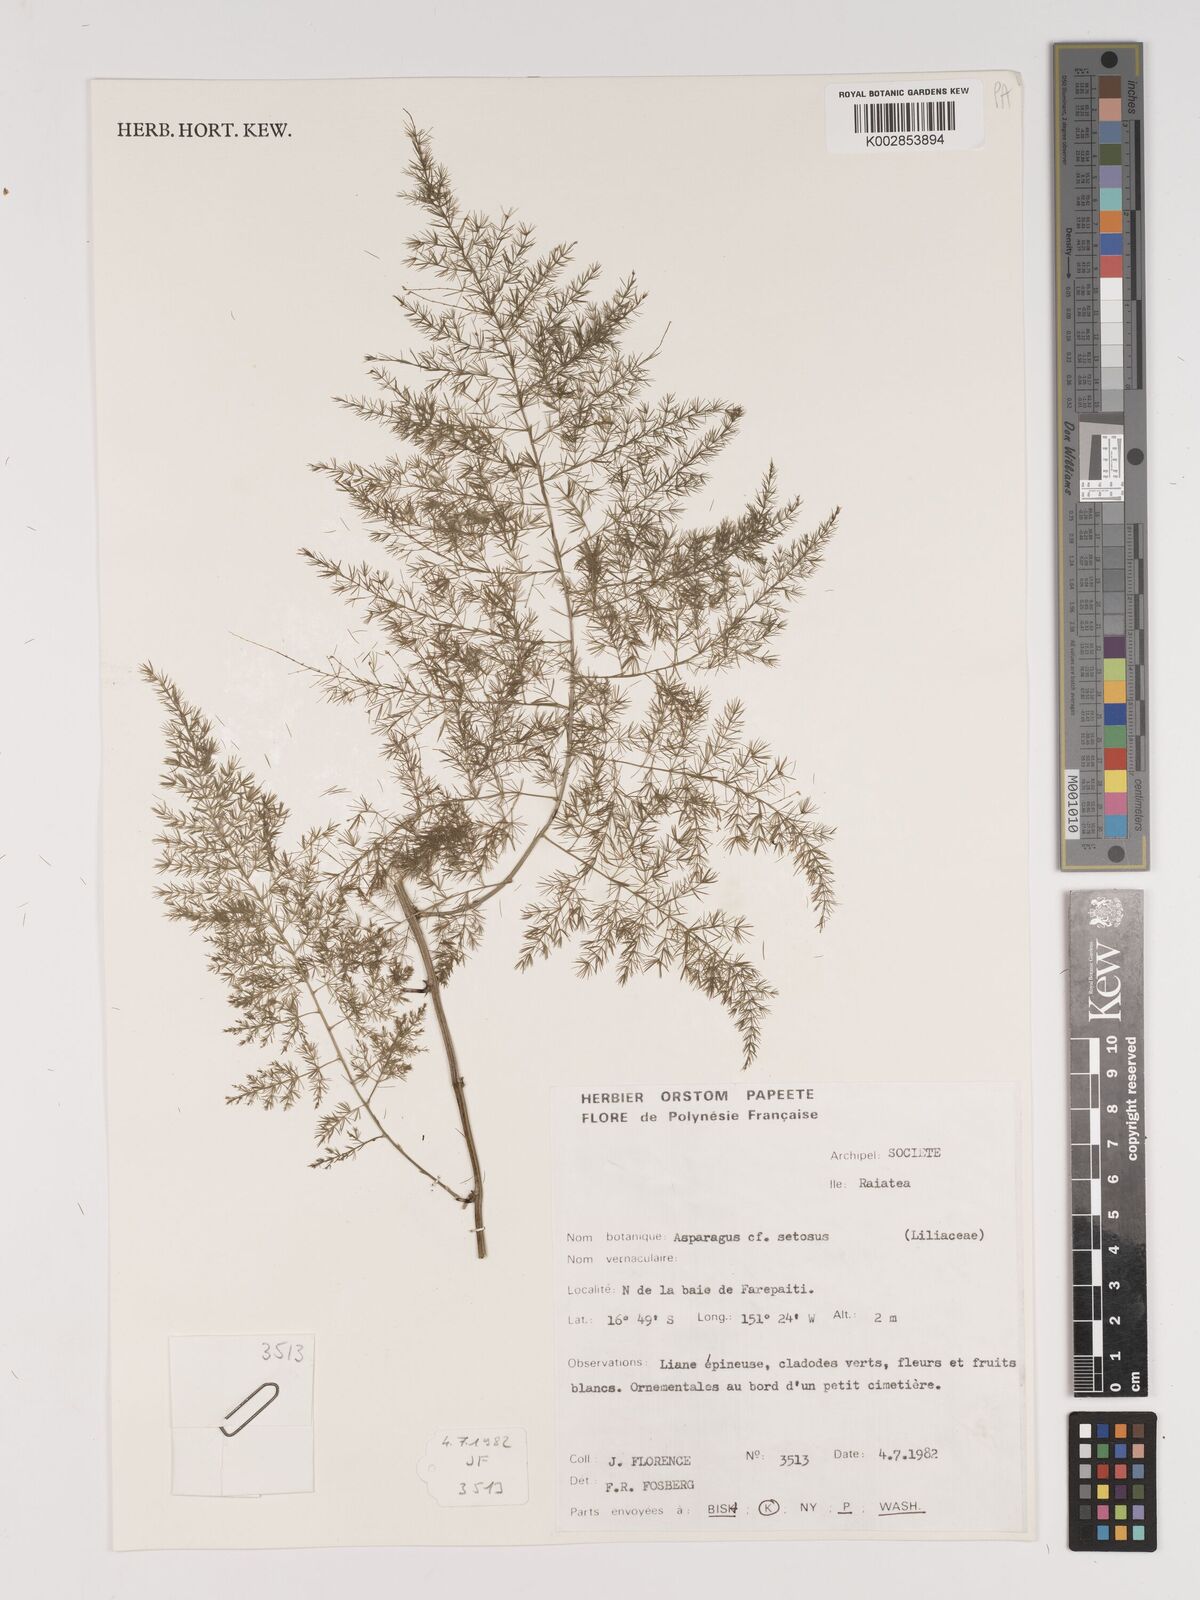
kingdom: Plantae
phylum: Tracheophyta
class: Liliopsida
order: Asparagales
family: Asparagaceae
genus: Asparagus
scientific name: Asparagus setaceus
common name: Common asparagus fern
